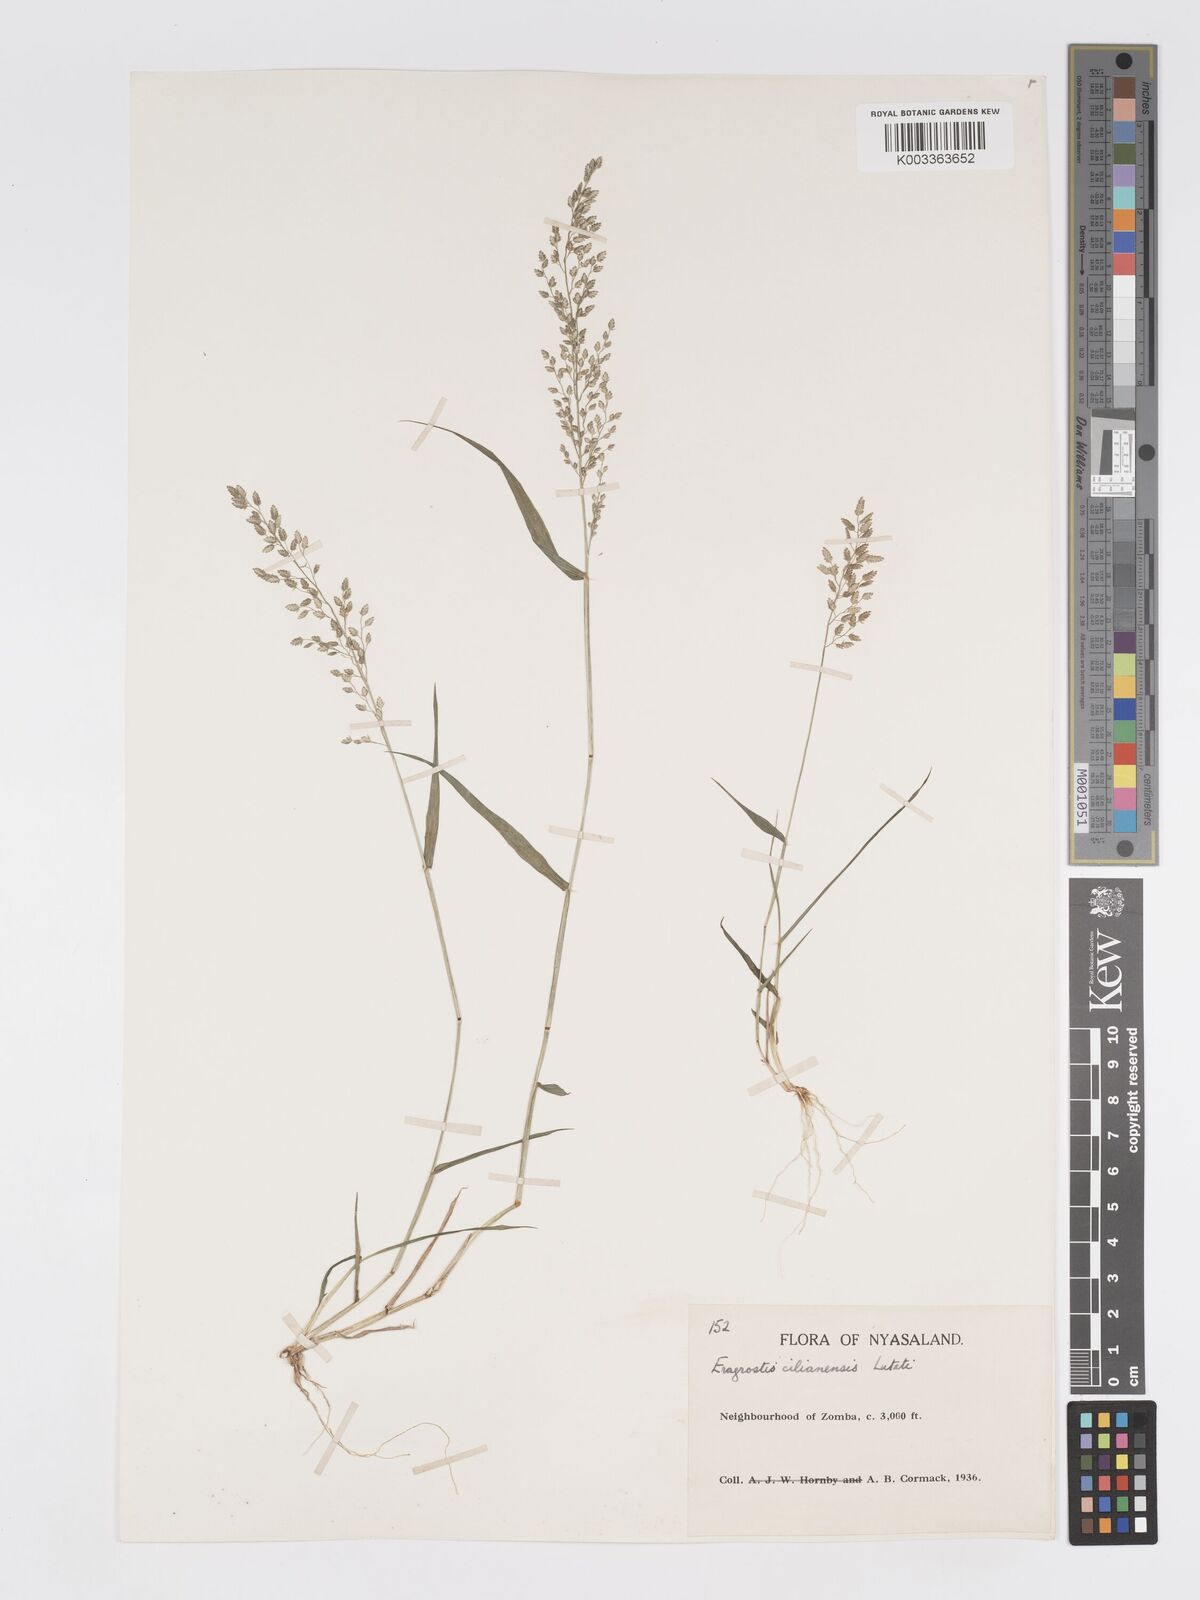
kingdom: Plantae
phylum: Tracheophyta
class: Liliopsida
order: Poales
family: Poaceae
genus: Eragrostis
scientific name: Eragrostis cilianensis
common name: Stinkgrass
